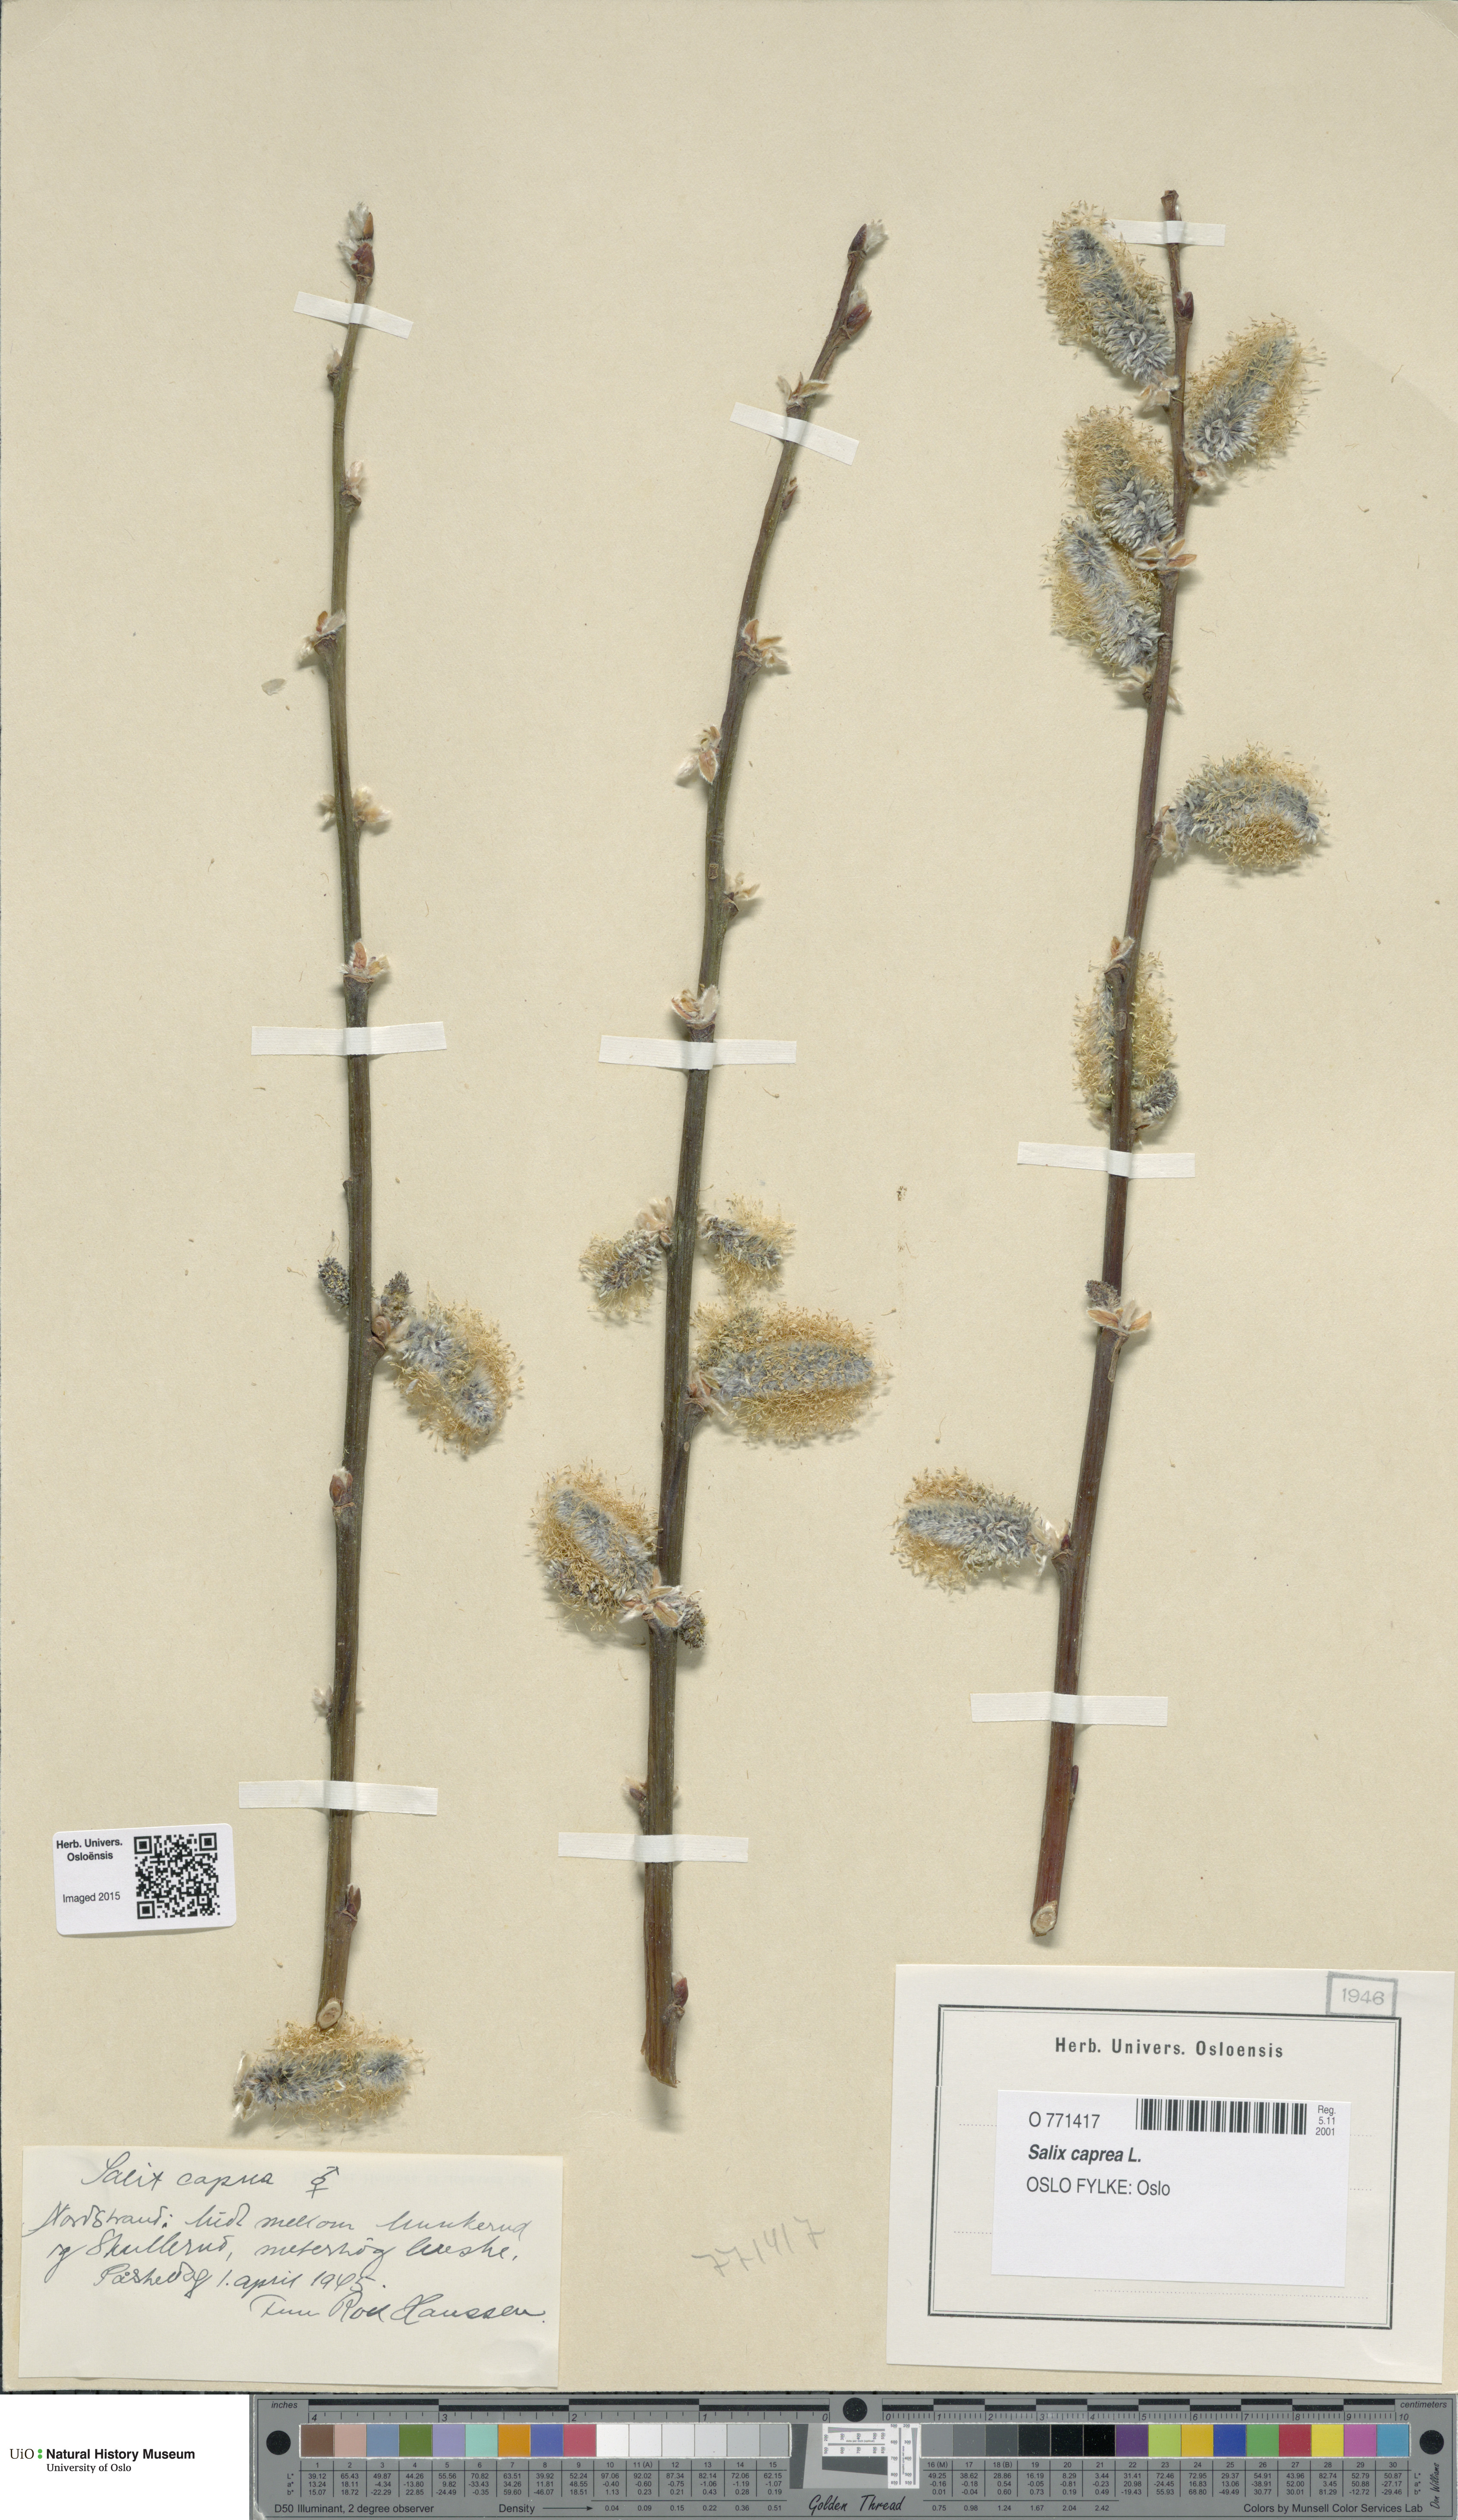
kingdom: Plantae
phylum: Tracheophyta
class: Magnoliopsida
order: Malpighiales
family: Salicaceae
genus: Salix
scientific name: Salix caprea
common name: Goat willow
